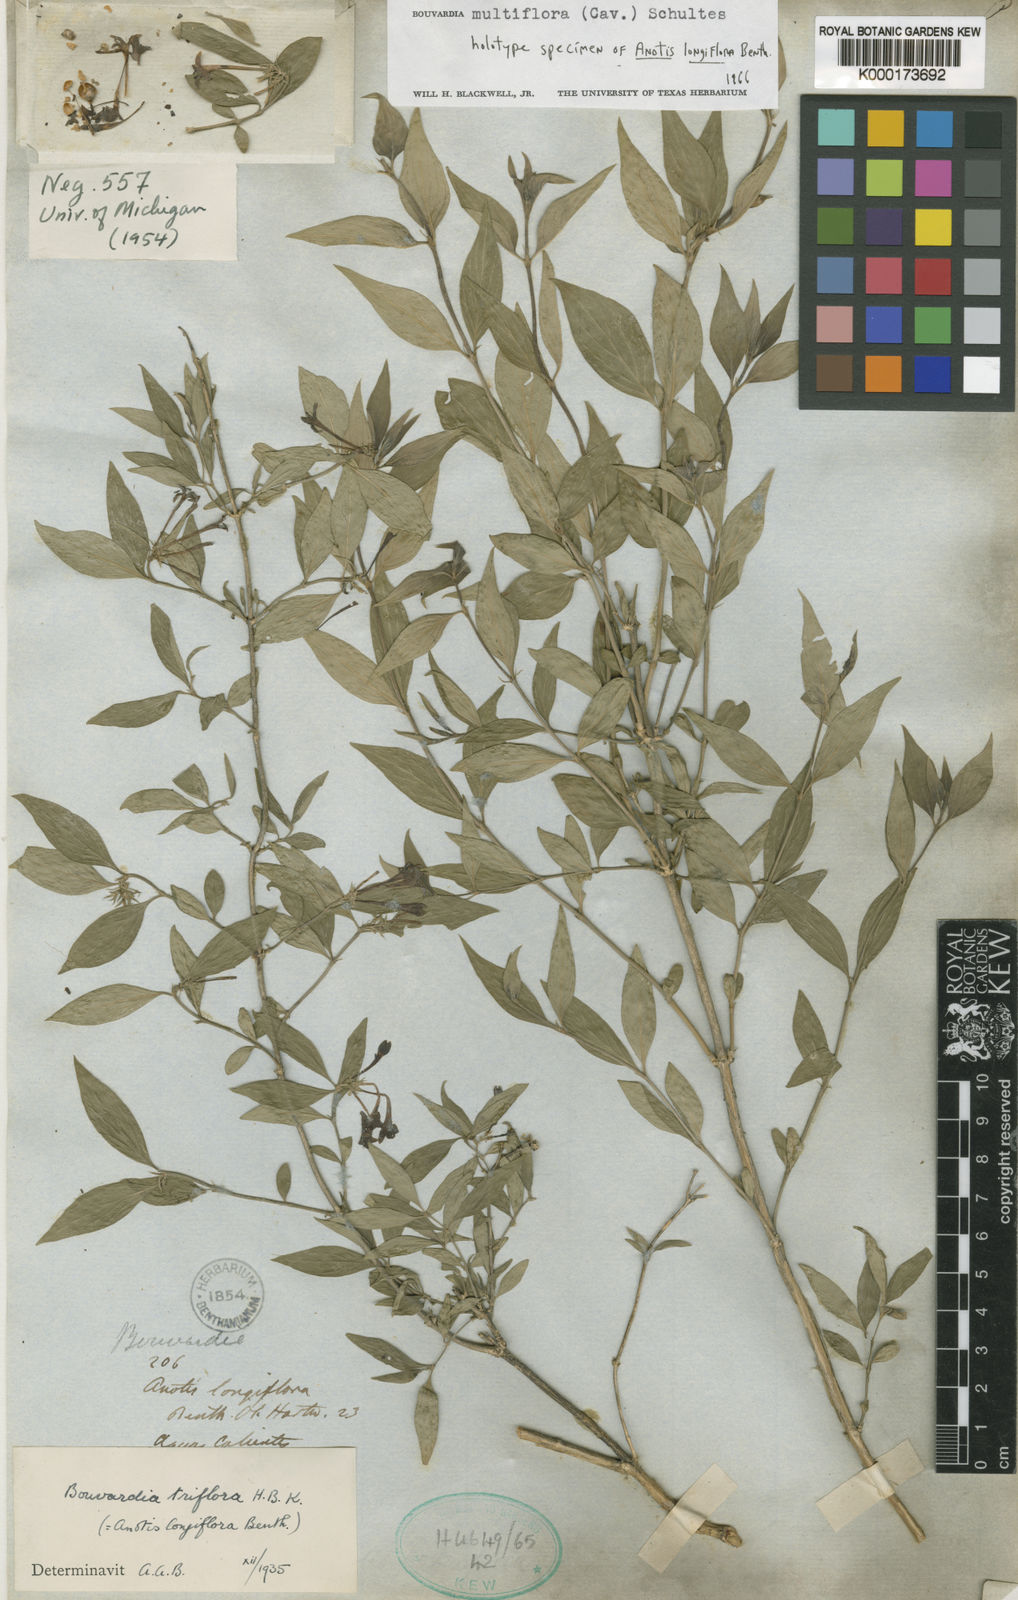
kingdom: Plantae
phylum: Tracheophyta
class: Magnoliopsida
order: Gentianales
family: Rubiaceae
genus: Bouvardia
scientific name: Bouvardia multiflora
